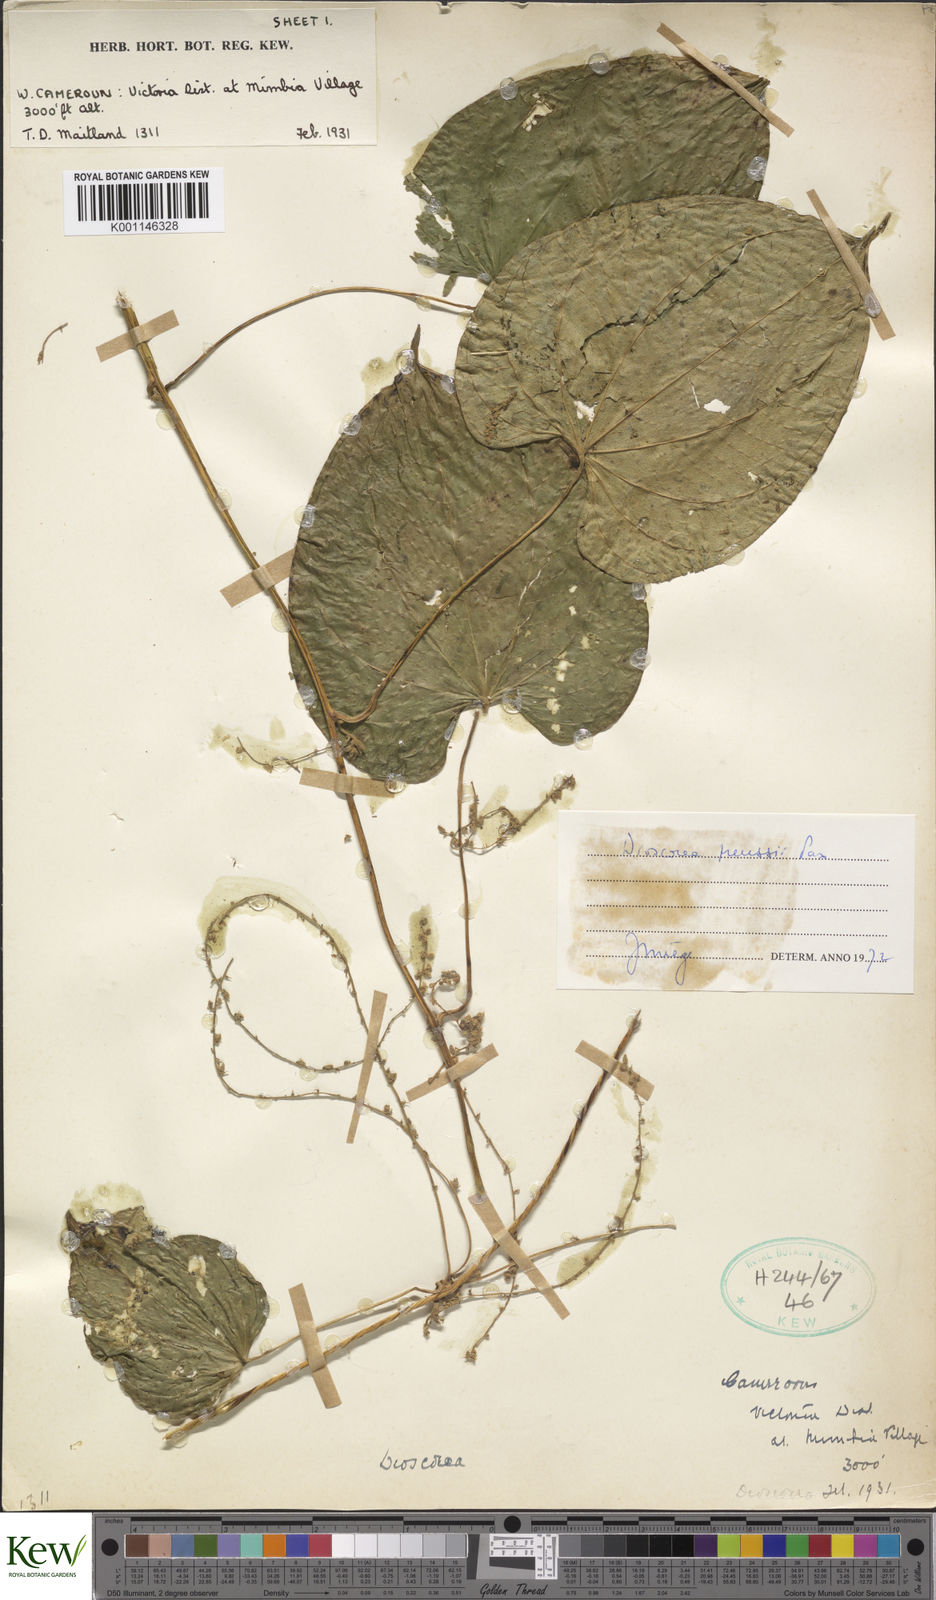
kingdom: Plantae
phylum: Tracheophyta
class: Liliopsida
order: Dioscoreales
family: Dioscoreaceae
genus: Dioscorea
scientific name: Dioscorea preussii
